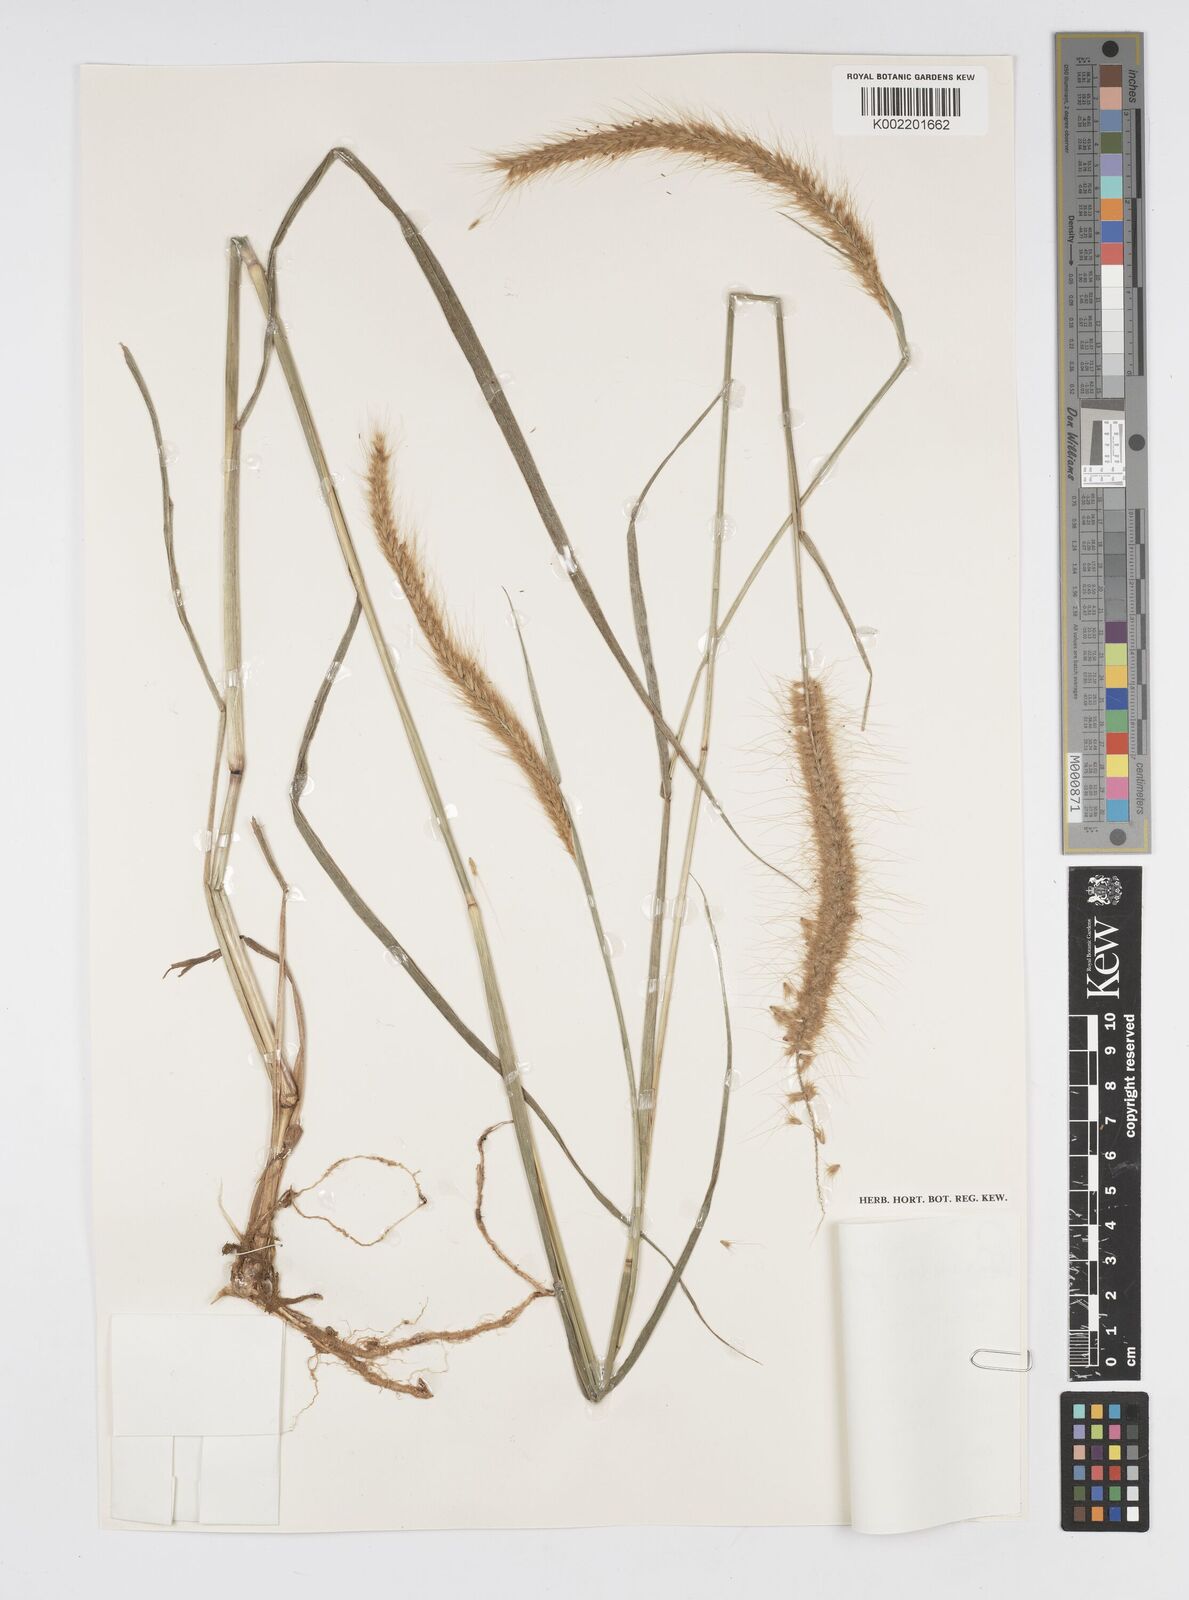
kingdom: Plantae
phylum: Tracheophyta
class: Liliopsida
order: Poales
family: Poaceae
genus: Setaria
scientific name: Setaria parviflora
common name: Knotroot bristle-grass
